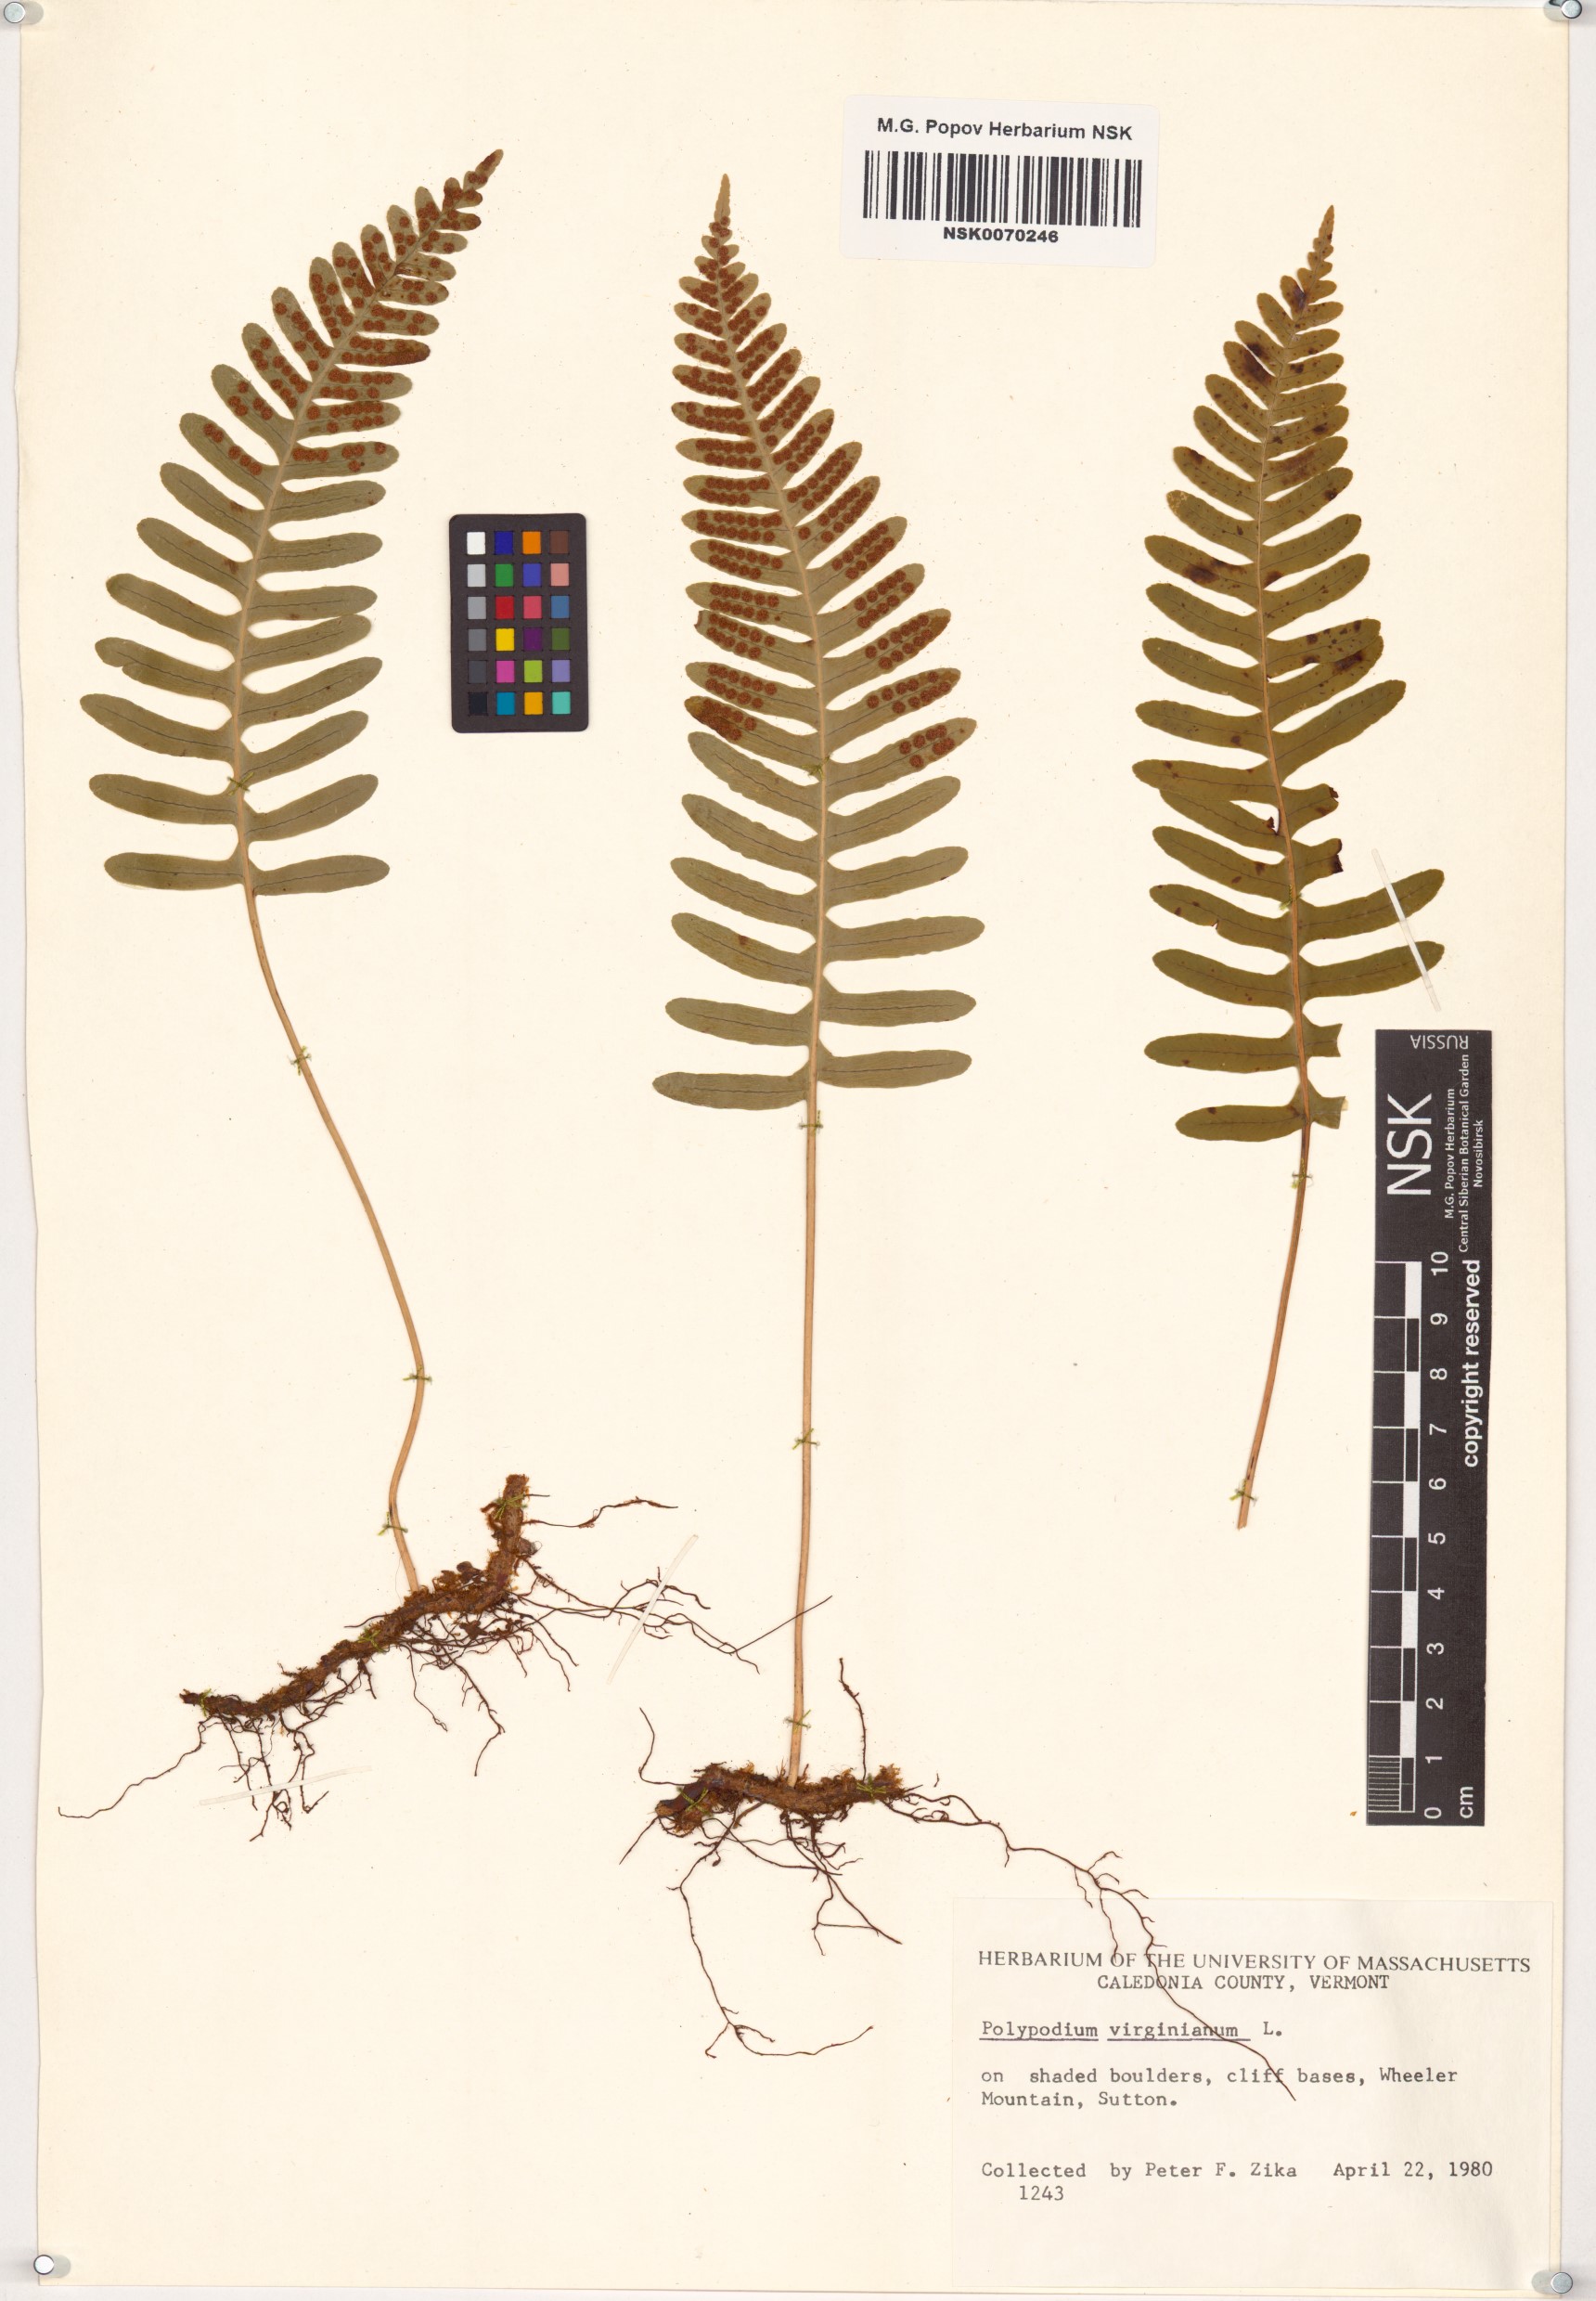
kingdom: Plantae
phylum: Tracheophyta
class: Polypodiopsida
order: Polypodiales
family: Polypodiaceae
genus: Polypodium
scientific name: Polypodium virginianum
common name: American wall fern
